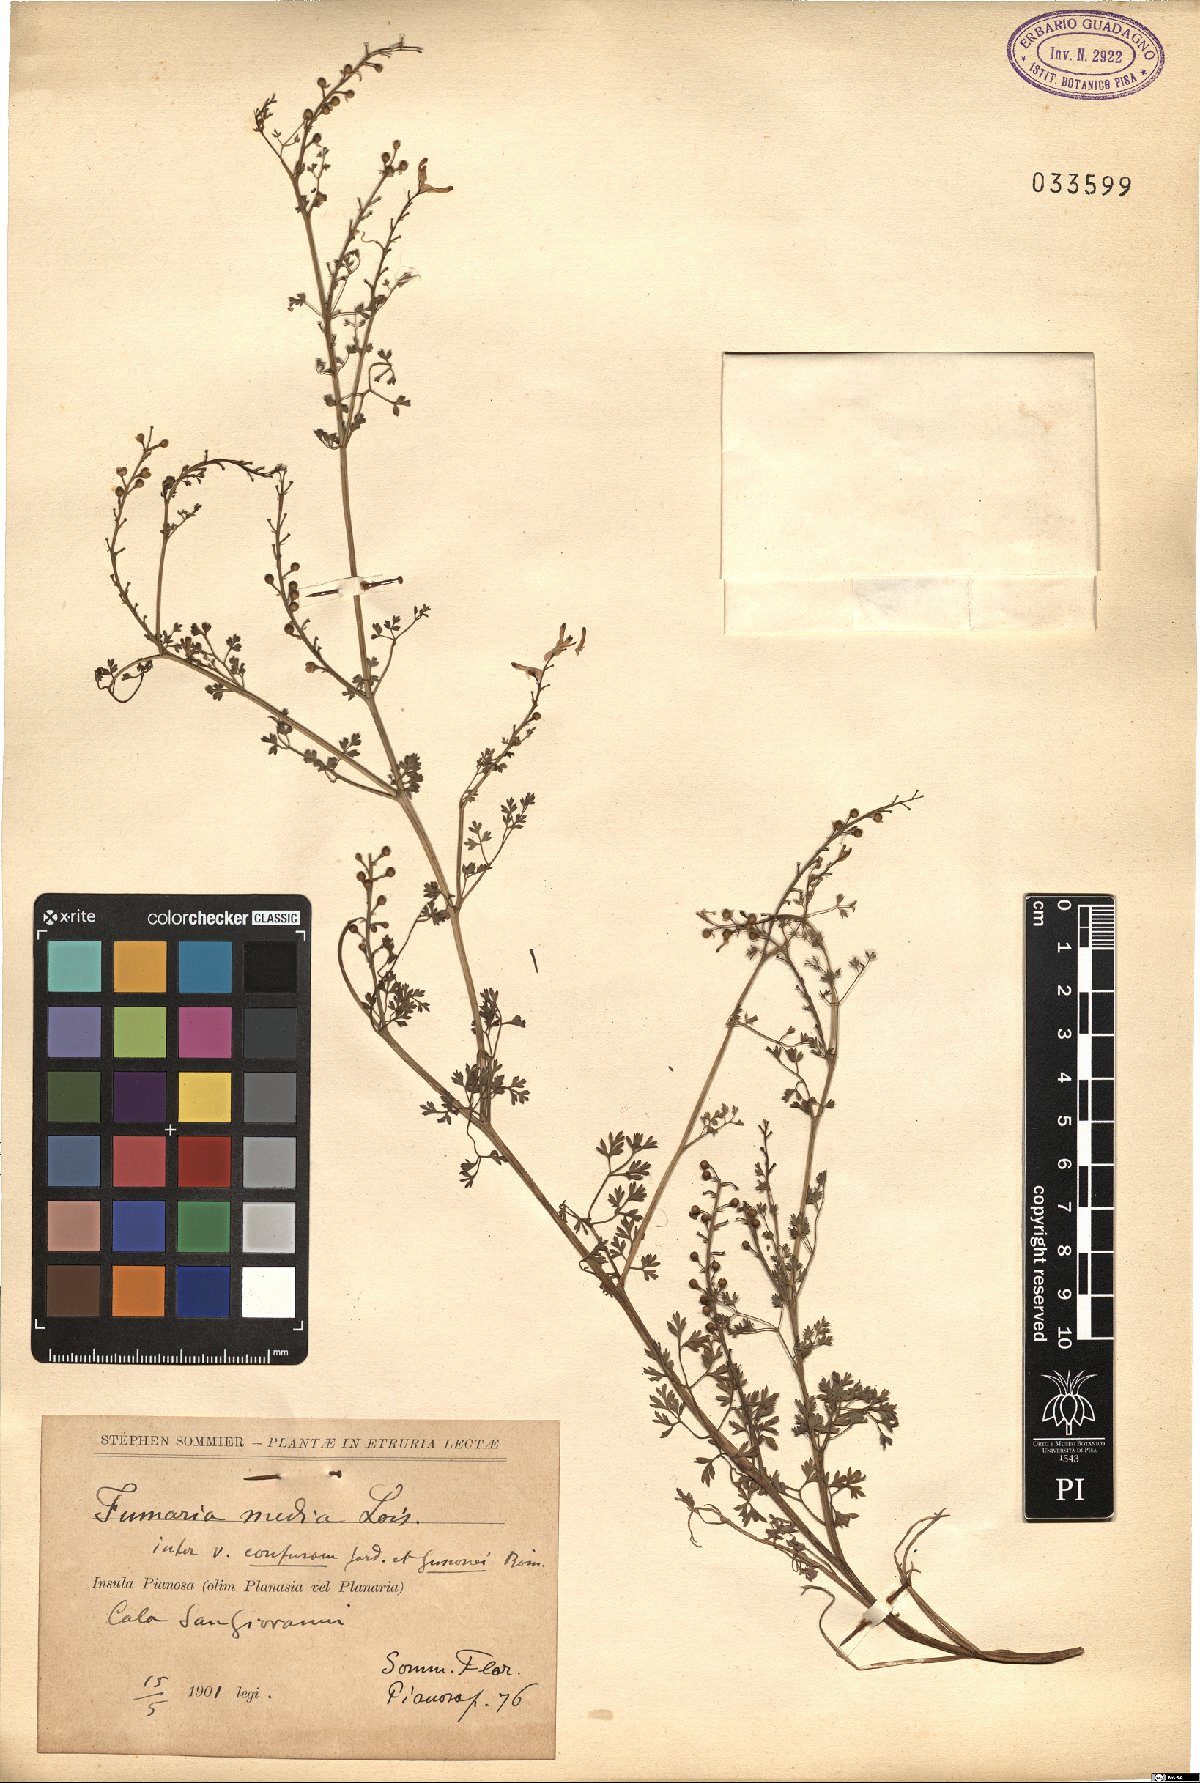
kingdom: Plantae
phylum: Tracheophyta
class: Magnoliopsida
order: Ranunculales
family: Papaveraceae
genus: Fumaria
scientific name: Fumaria
